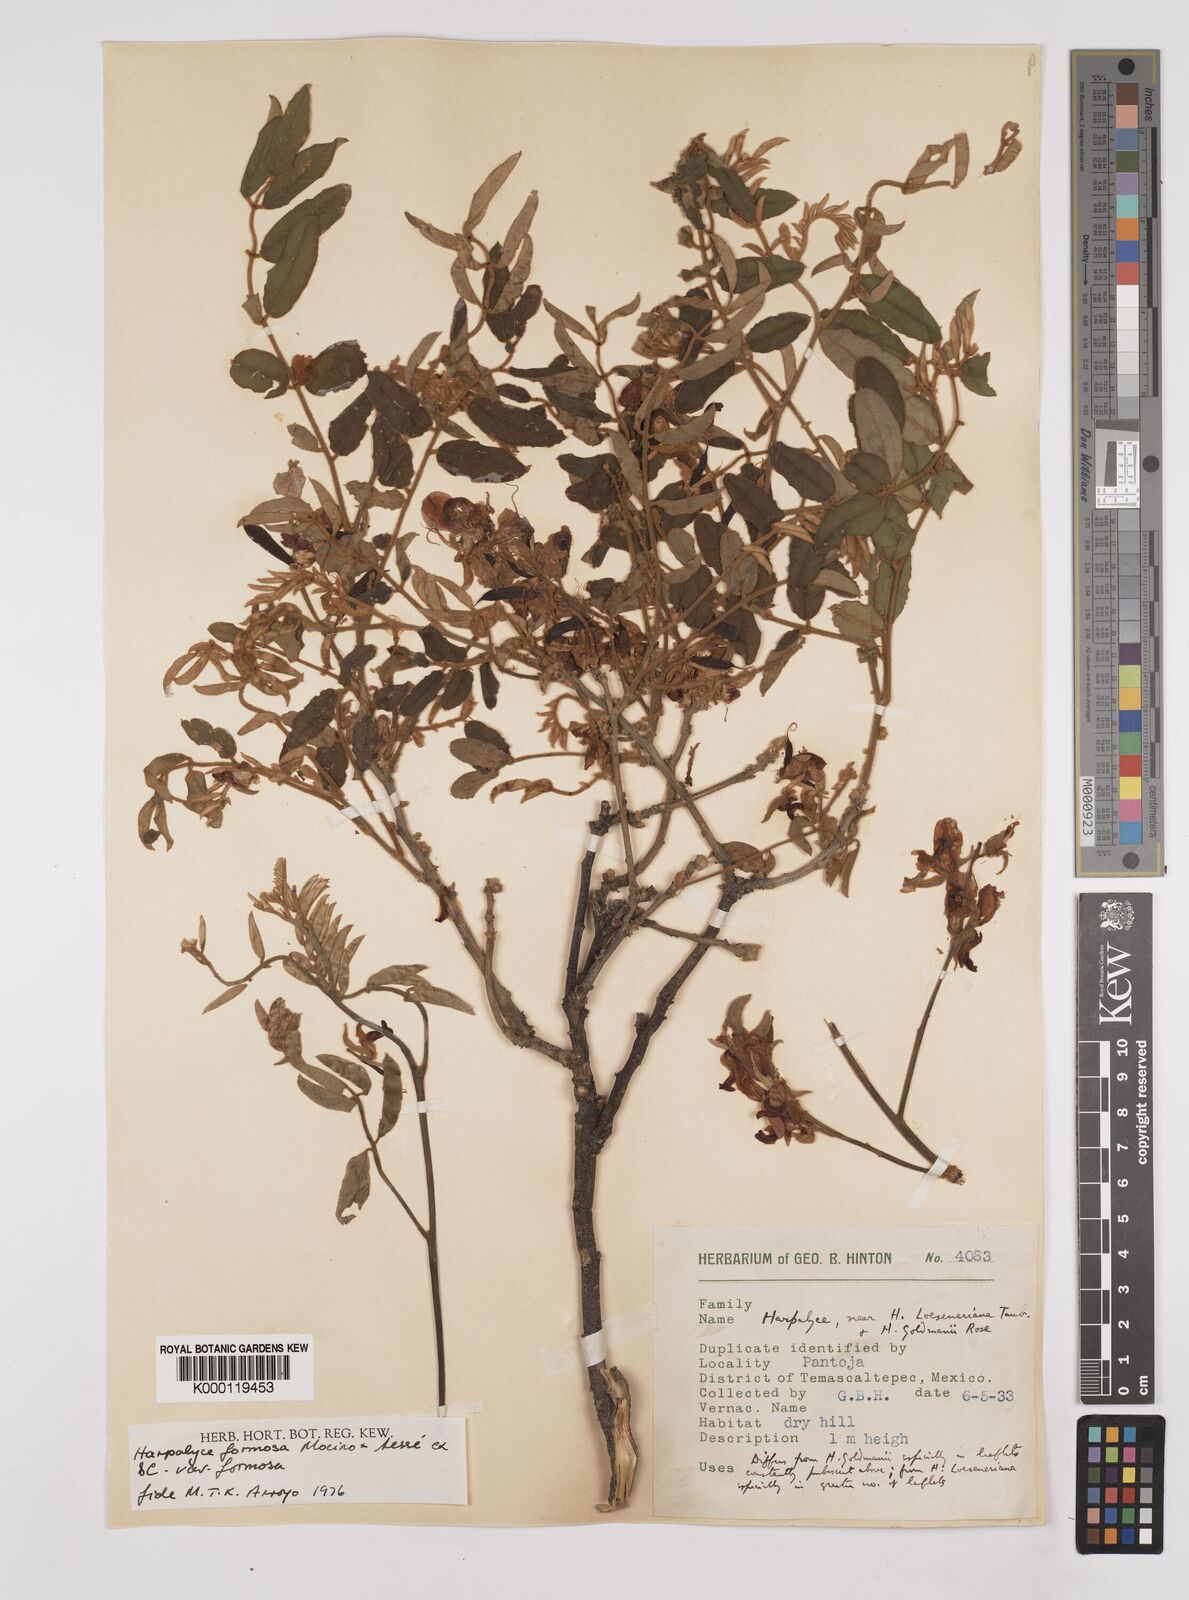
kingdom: Plantae
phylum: Tracheophyta
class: Magnoliopsida
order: Fabales
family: Fabaceae
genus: Harpalyce
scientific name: Harpalyce formosa
